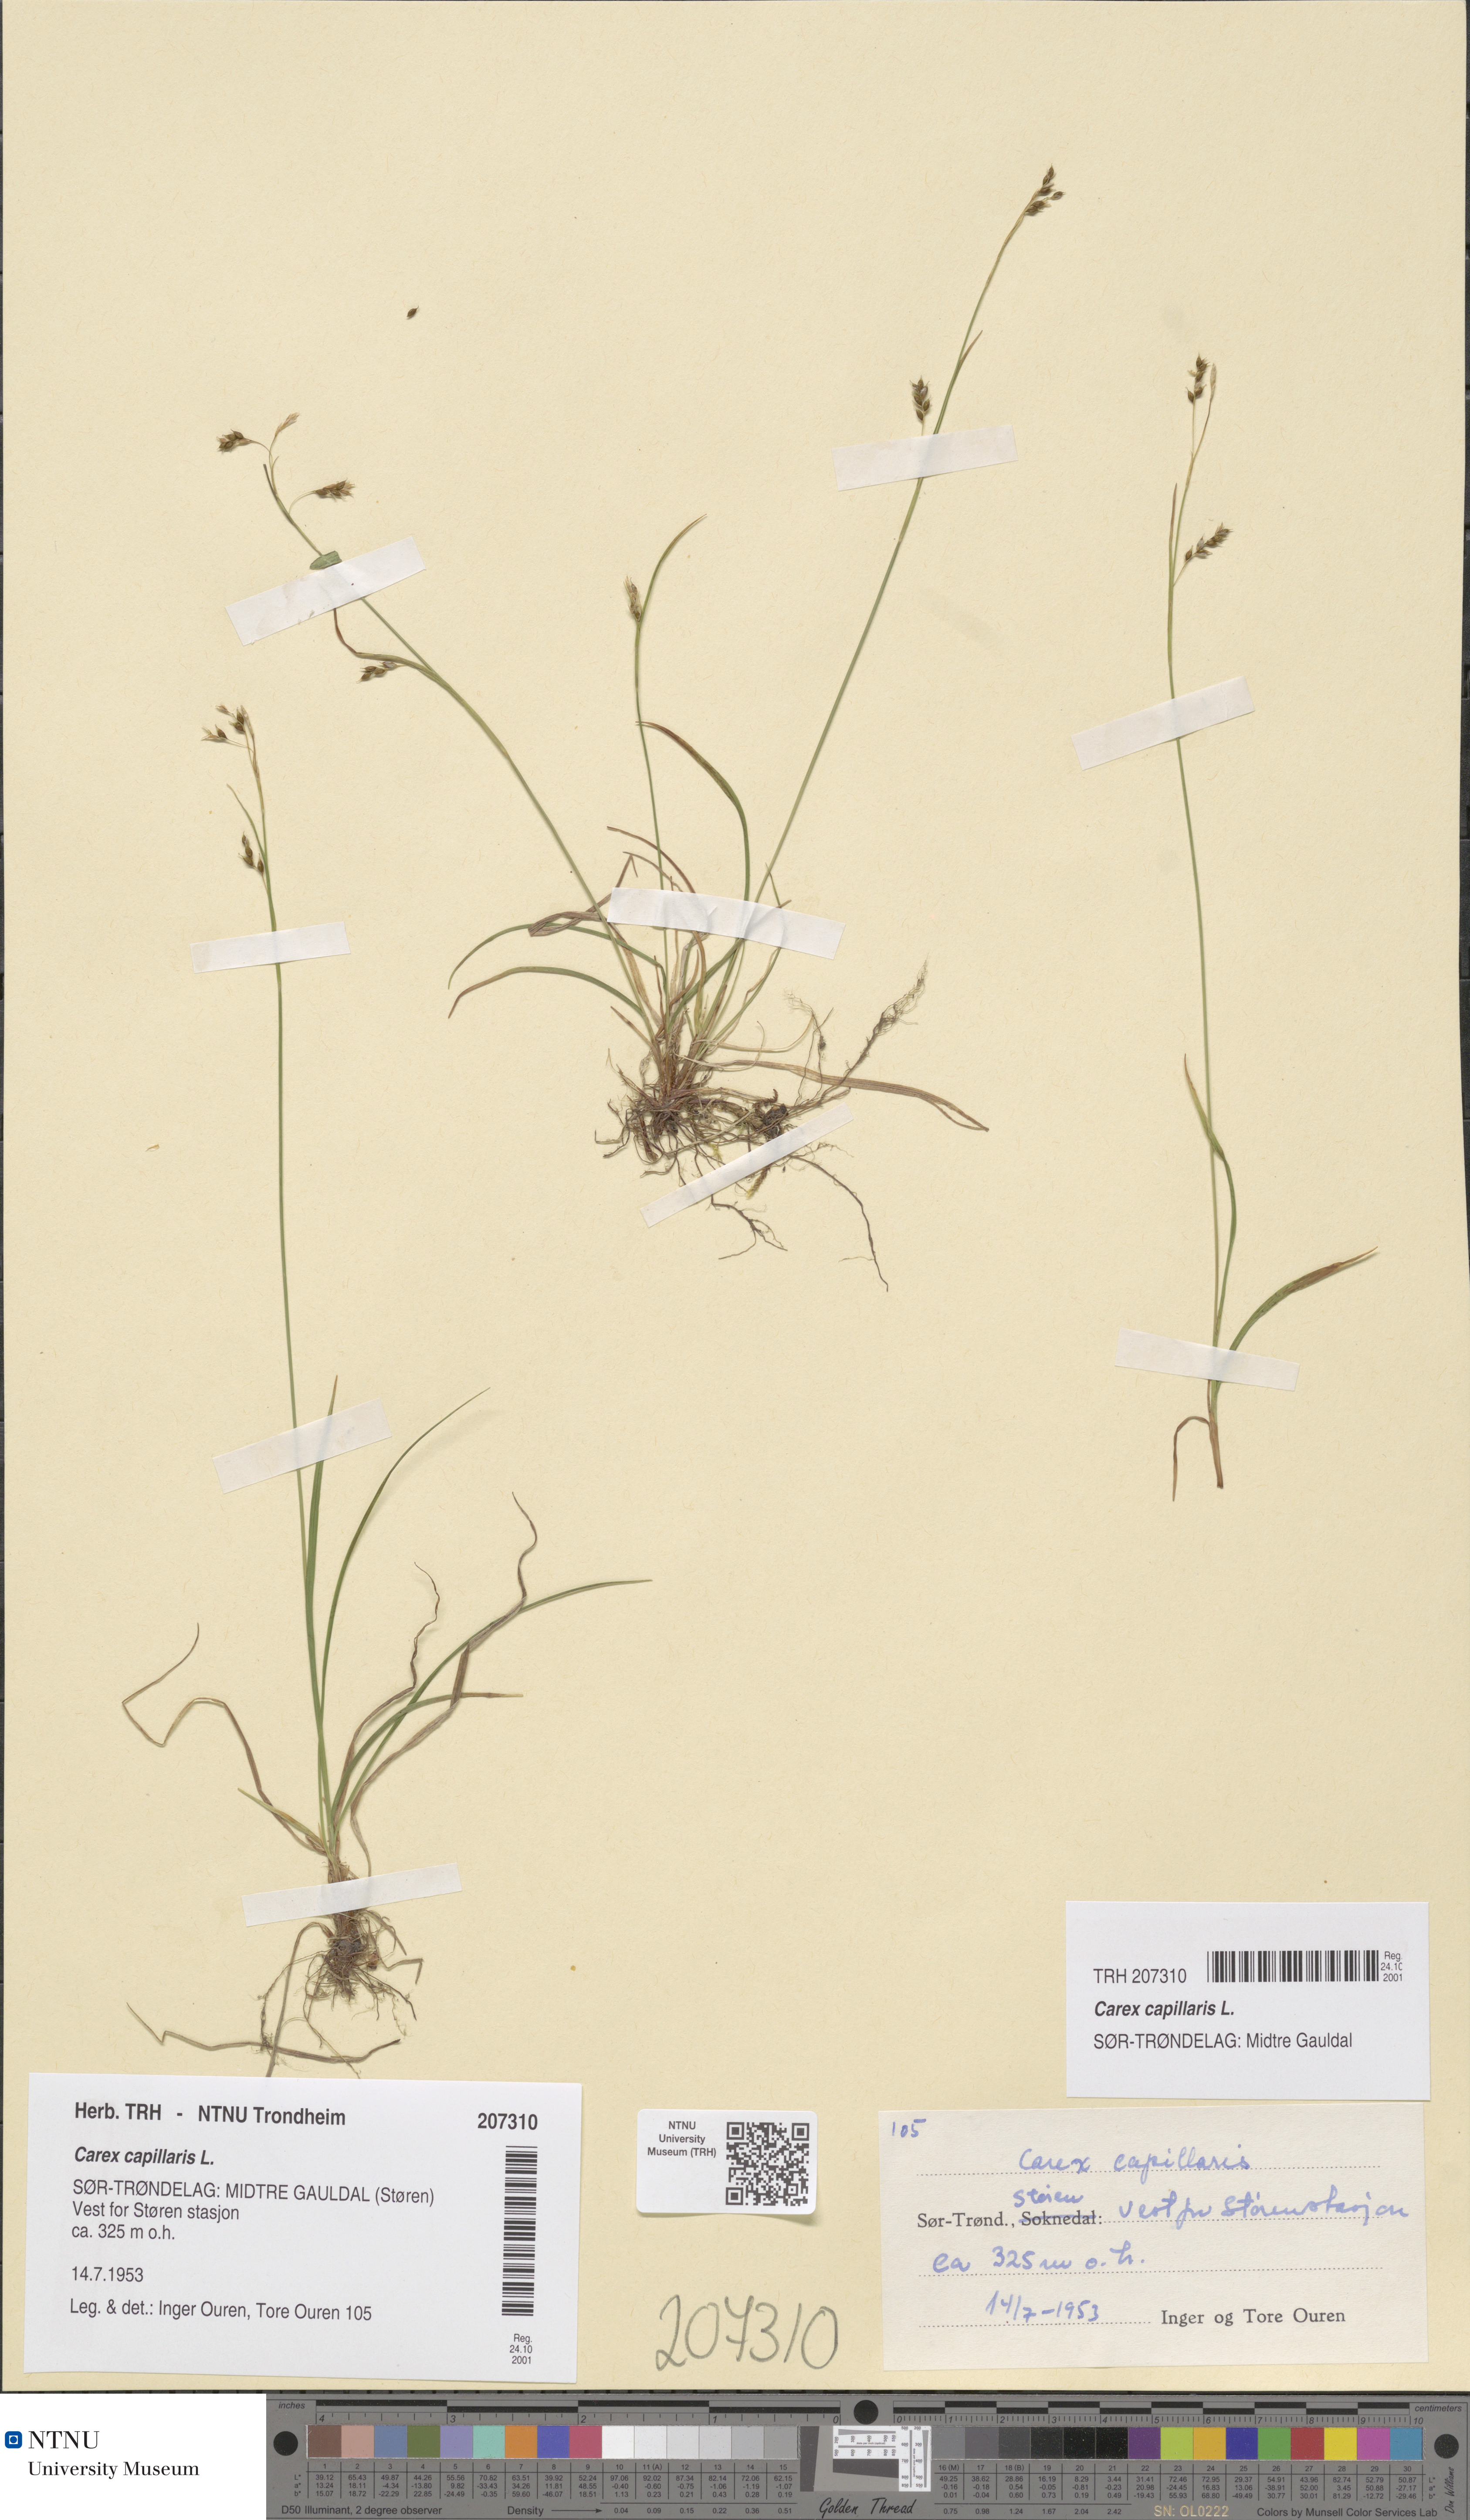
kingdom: Plantae
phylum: Tracheophyta
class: Liliopsida
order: Poales
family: Cyperaceae
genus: Carex
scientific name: Carex capillaris
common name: Hair sedge
